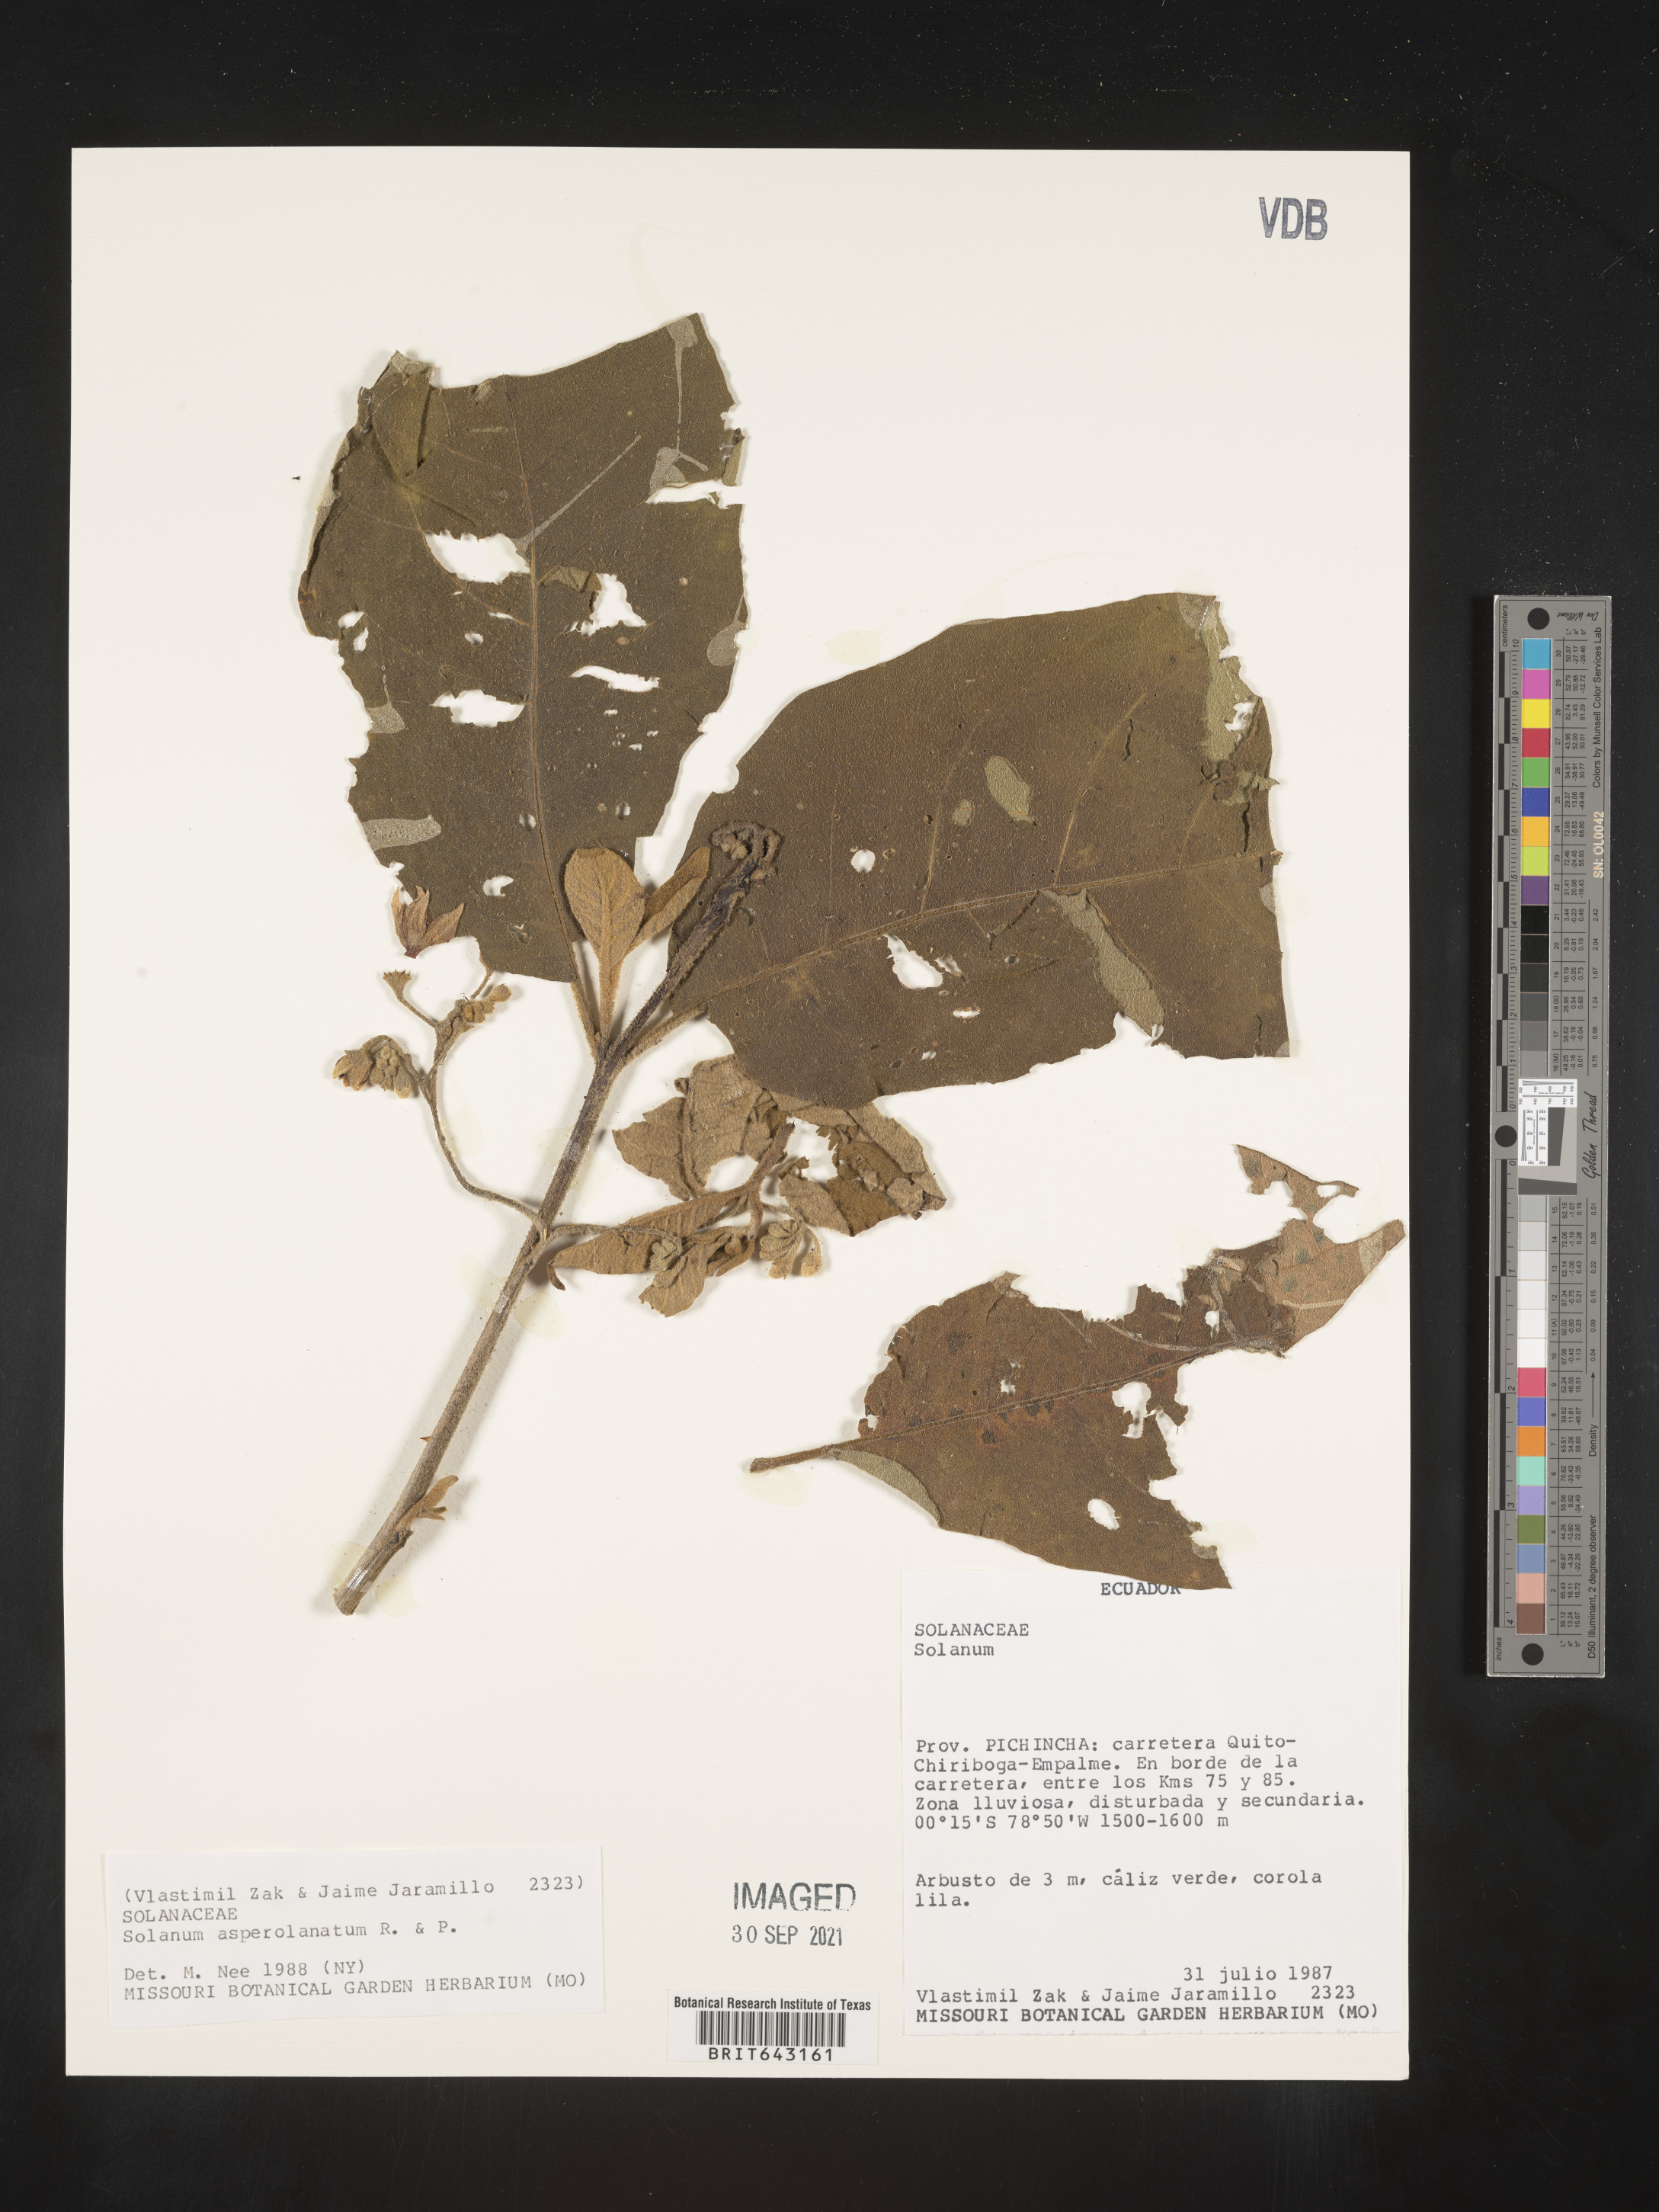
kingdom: Plantae
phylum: Tracheophyta
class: Magnoliopsida
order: Solanales
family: Solanaceae
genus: Solanum
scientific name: Solanum
